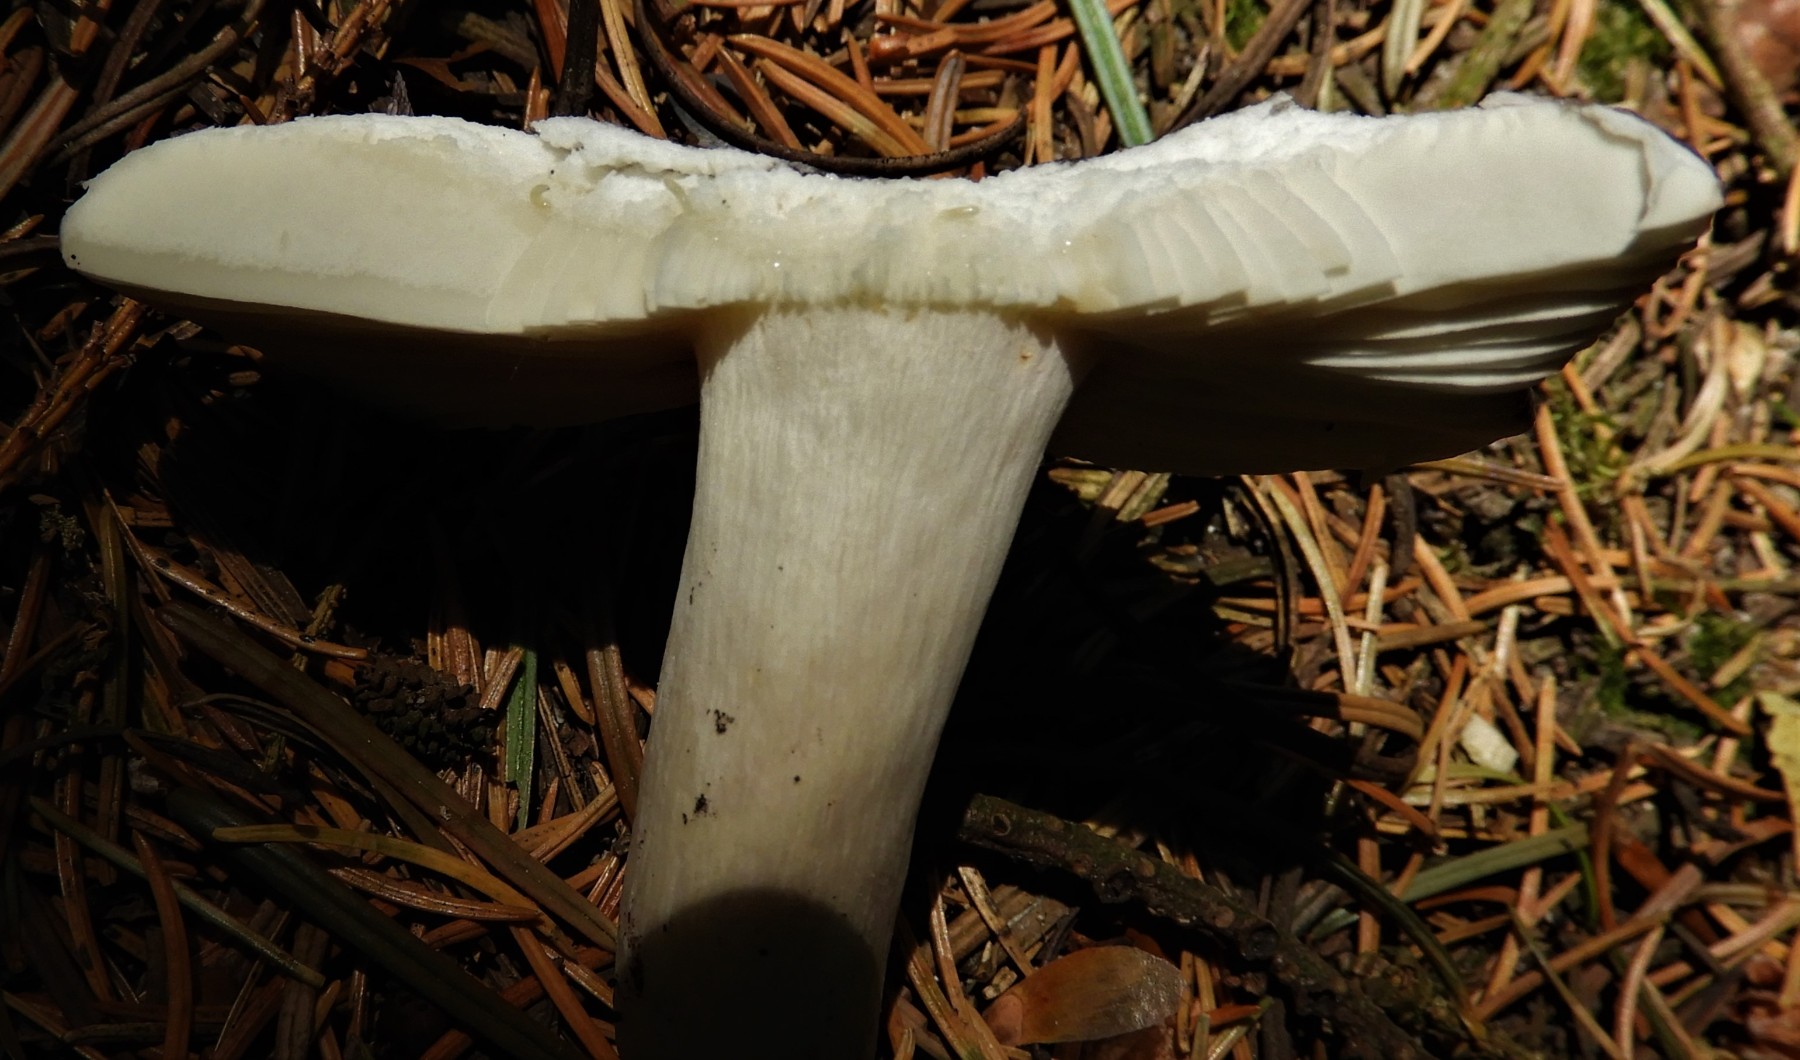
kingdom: Fungi
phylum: Basidiomycota
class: Agaricomycetes
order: Russulales
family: Russulaceae
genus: Russula
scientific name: Russula
